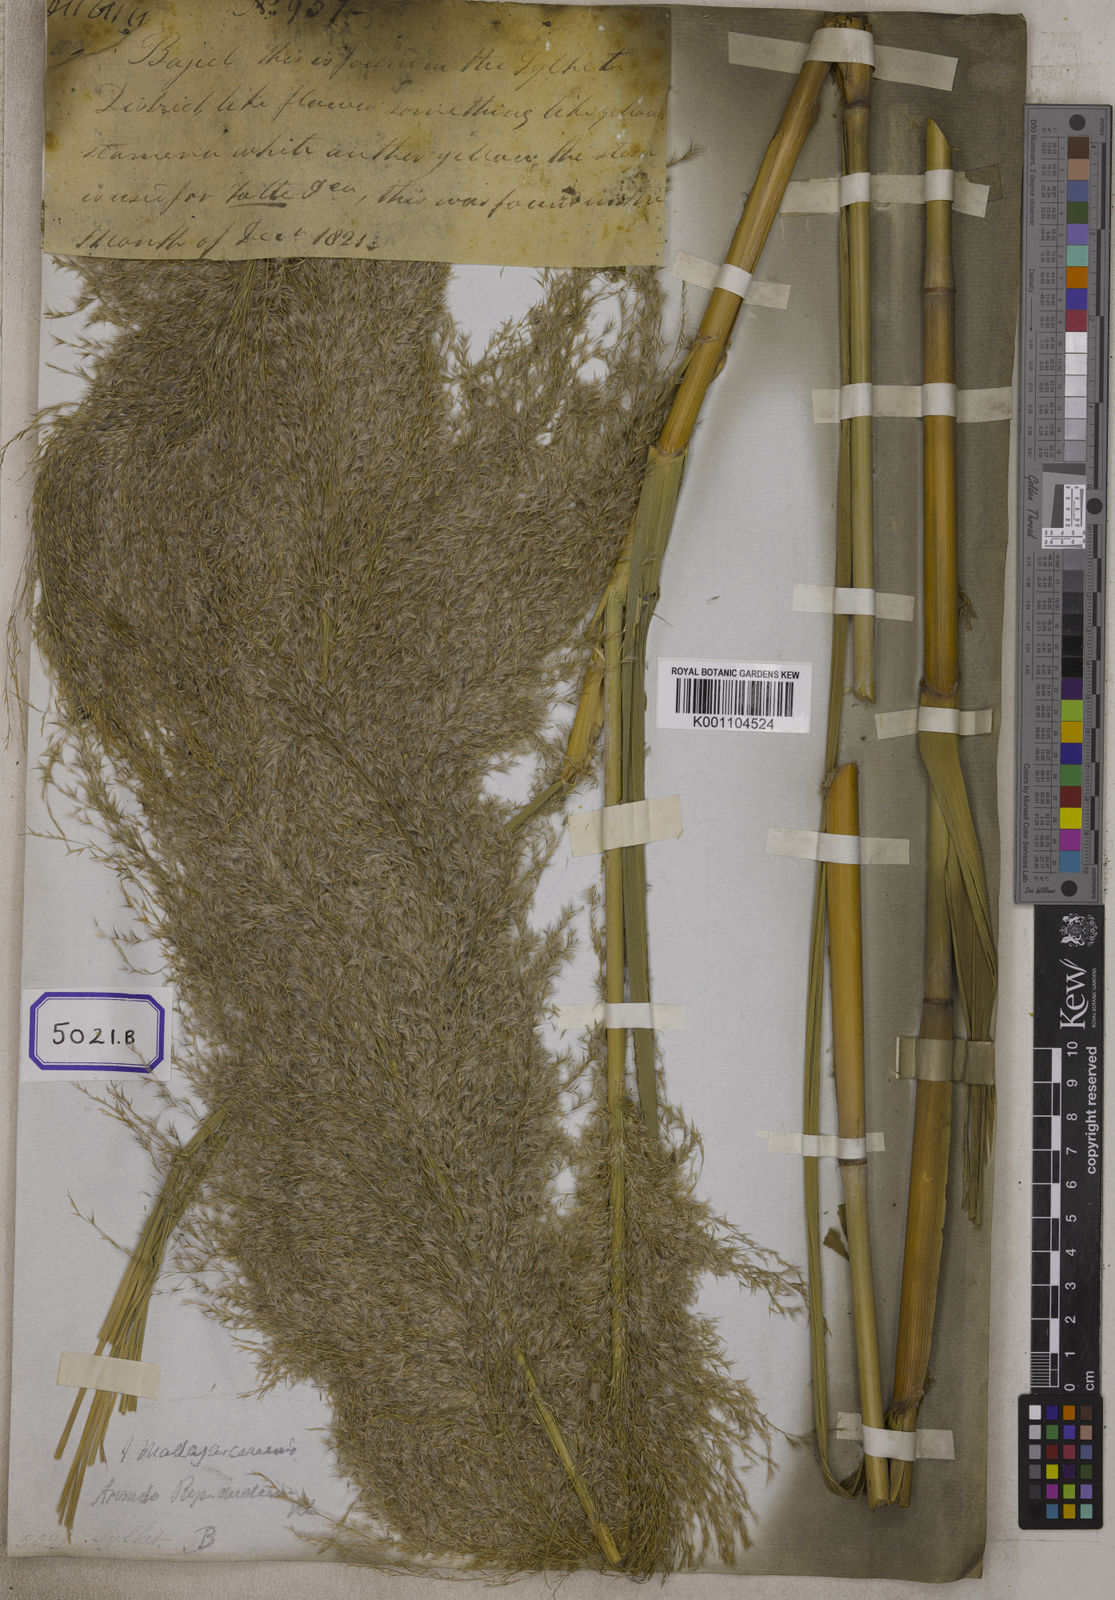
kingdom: Plantae
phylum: Tracheophyta
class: Liliopsida
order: Poales
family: Poaceae
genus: Arundo
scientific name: Arundo
